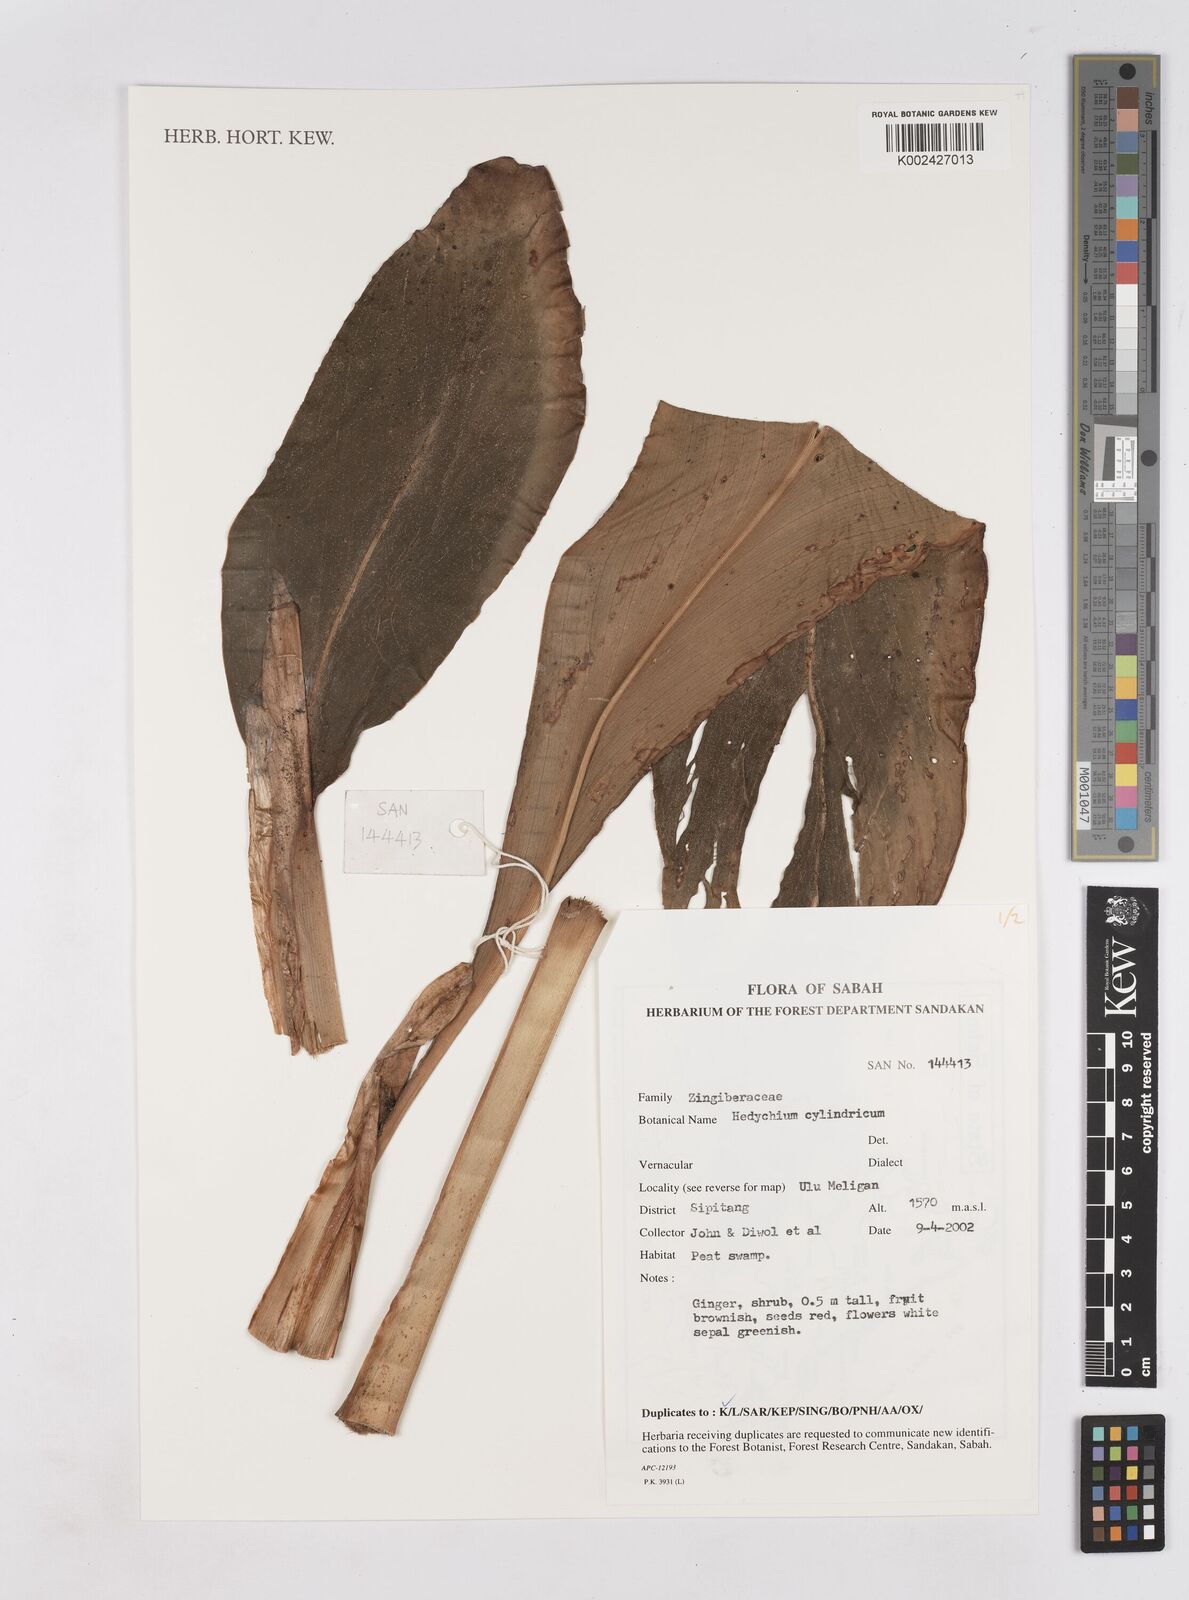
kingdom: Plantae
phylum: Tracheophyta
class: Liliopsida
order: Zingiberales
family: Zingiberaceae
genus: Hedychium
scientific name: Hedychium cylindricum
